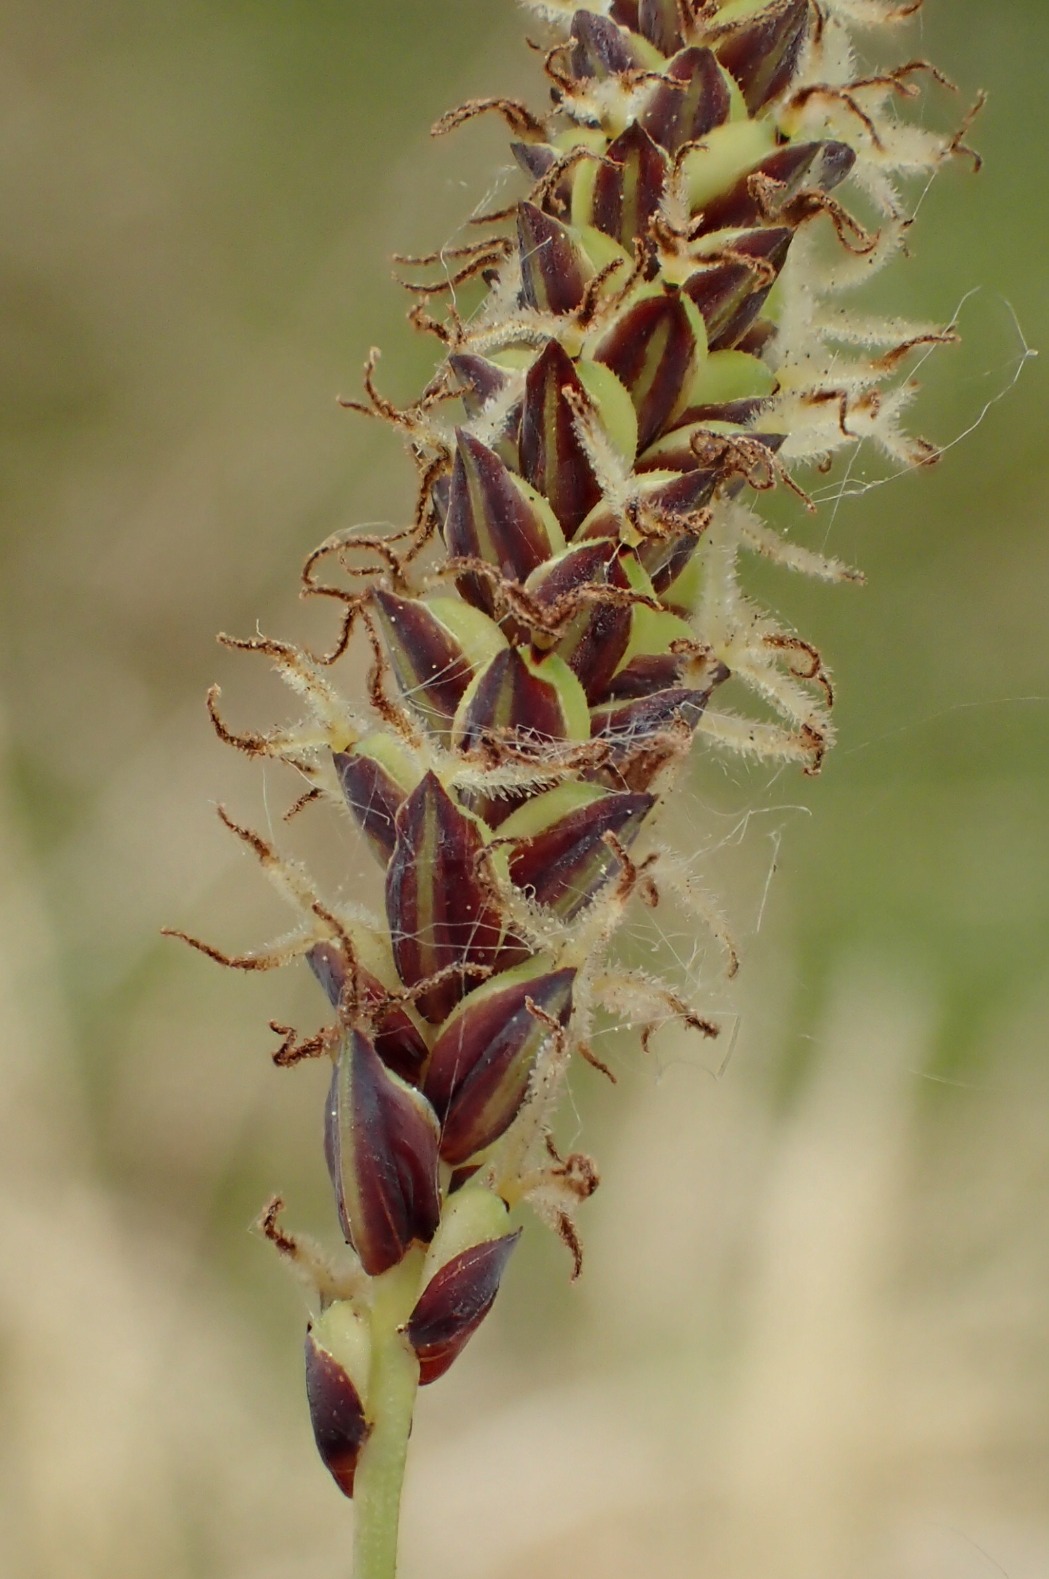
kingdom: Plantae
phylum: Tracheophyta
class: Liliopsida
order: Poales
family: Cyperaceae
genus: Carex
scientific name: Carex flacca
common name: Blågrøn star
